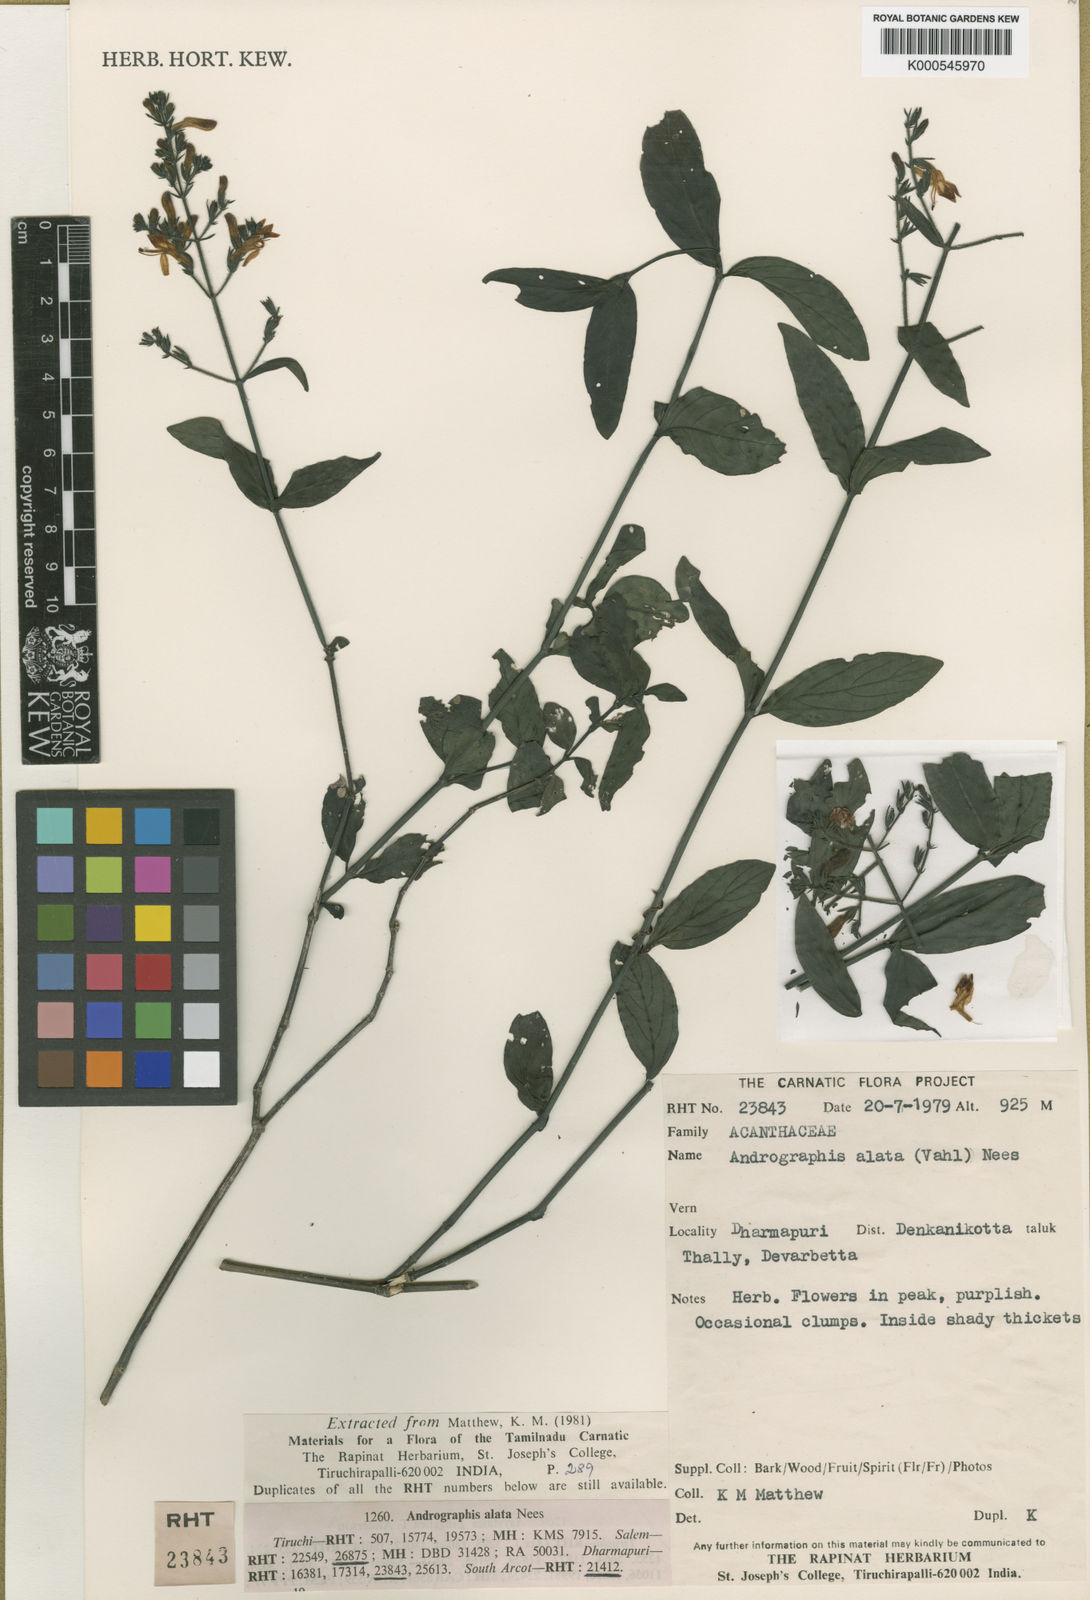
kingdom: Plantae
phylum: Tracheophyta
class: Magnoliopsida
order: Lamiales
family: Acanthaceae
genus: Andrographis
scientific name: Andrographis alata
